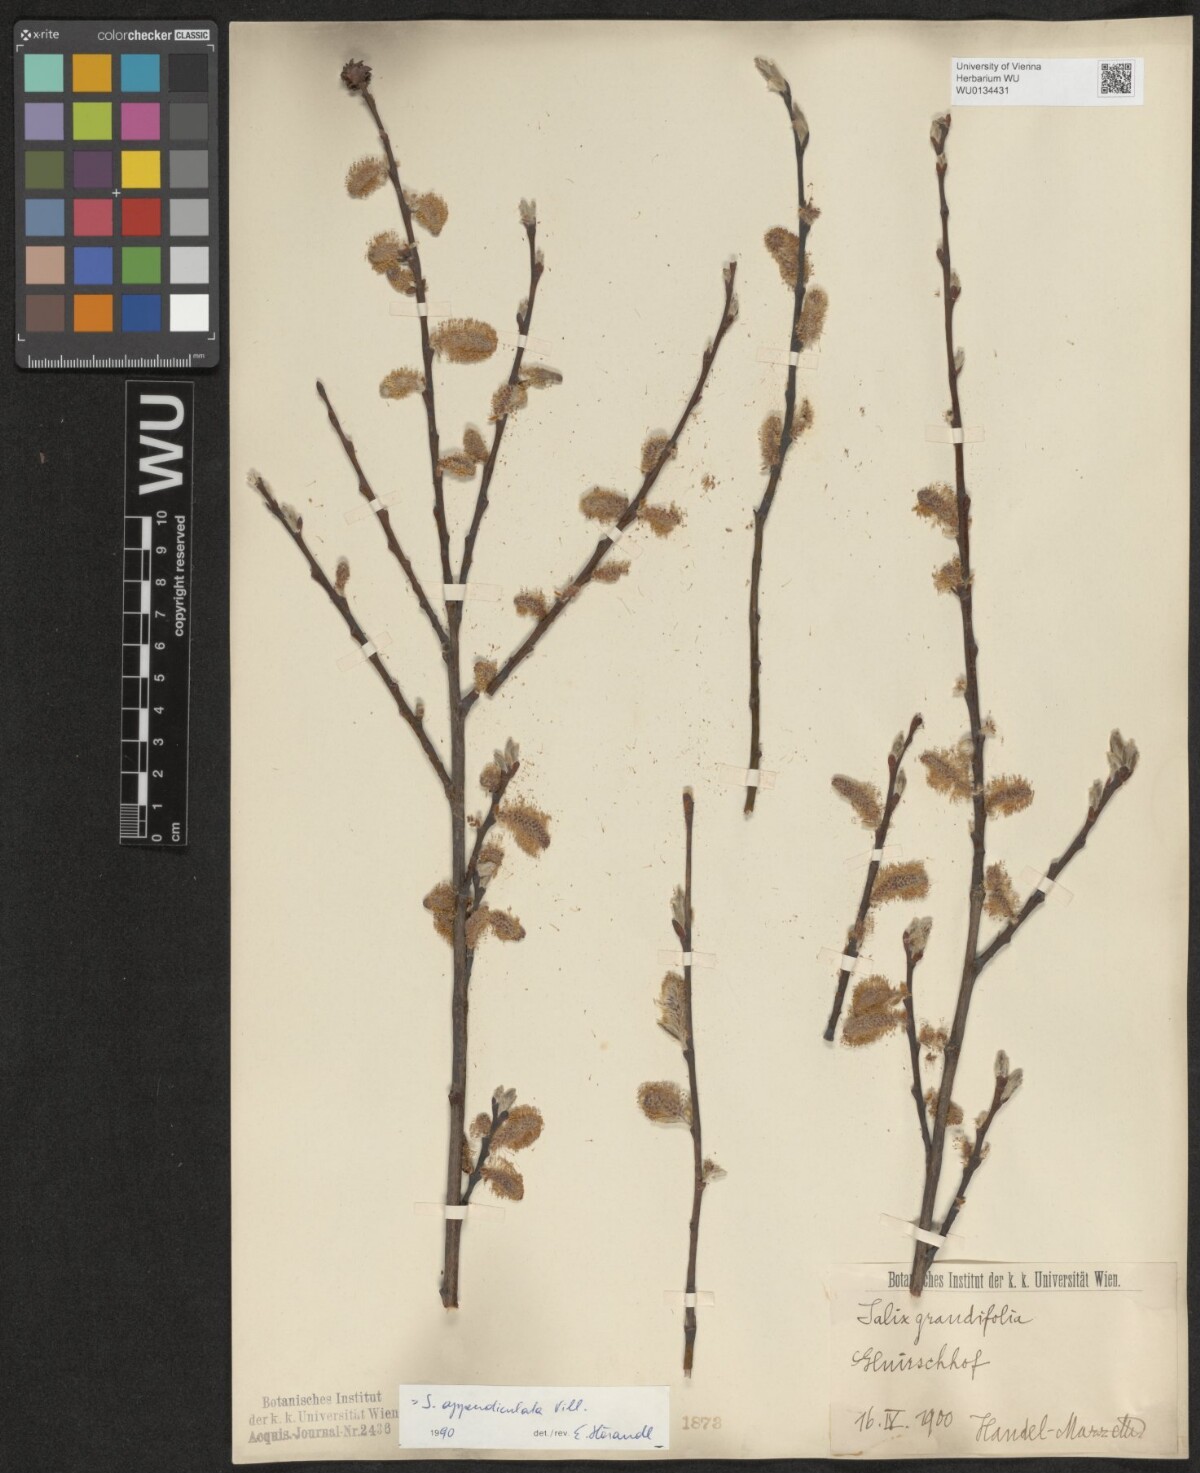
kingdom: Plantae
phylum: Tracheophyta
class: Magnoliopsida
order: Malpighiales
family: Salicaceae
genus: Salix
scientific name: Salix appendiculata
